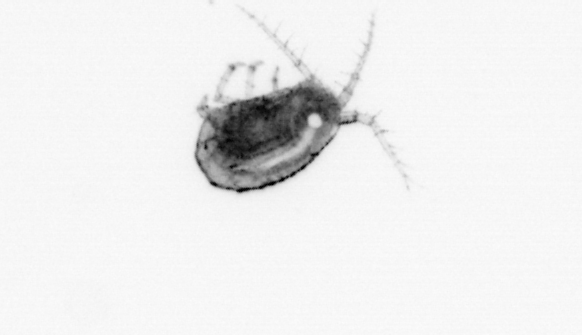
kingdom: Animalia
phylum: Arthropoda
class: Malacostraca
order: Decapoda
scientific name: Decapoda
